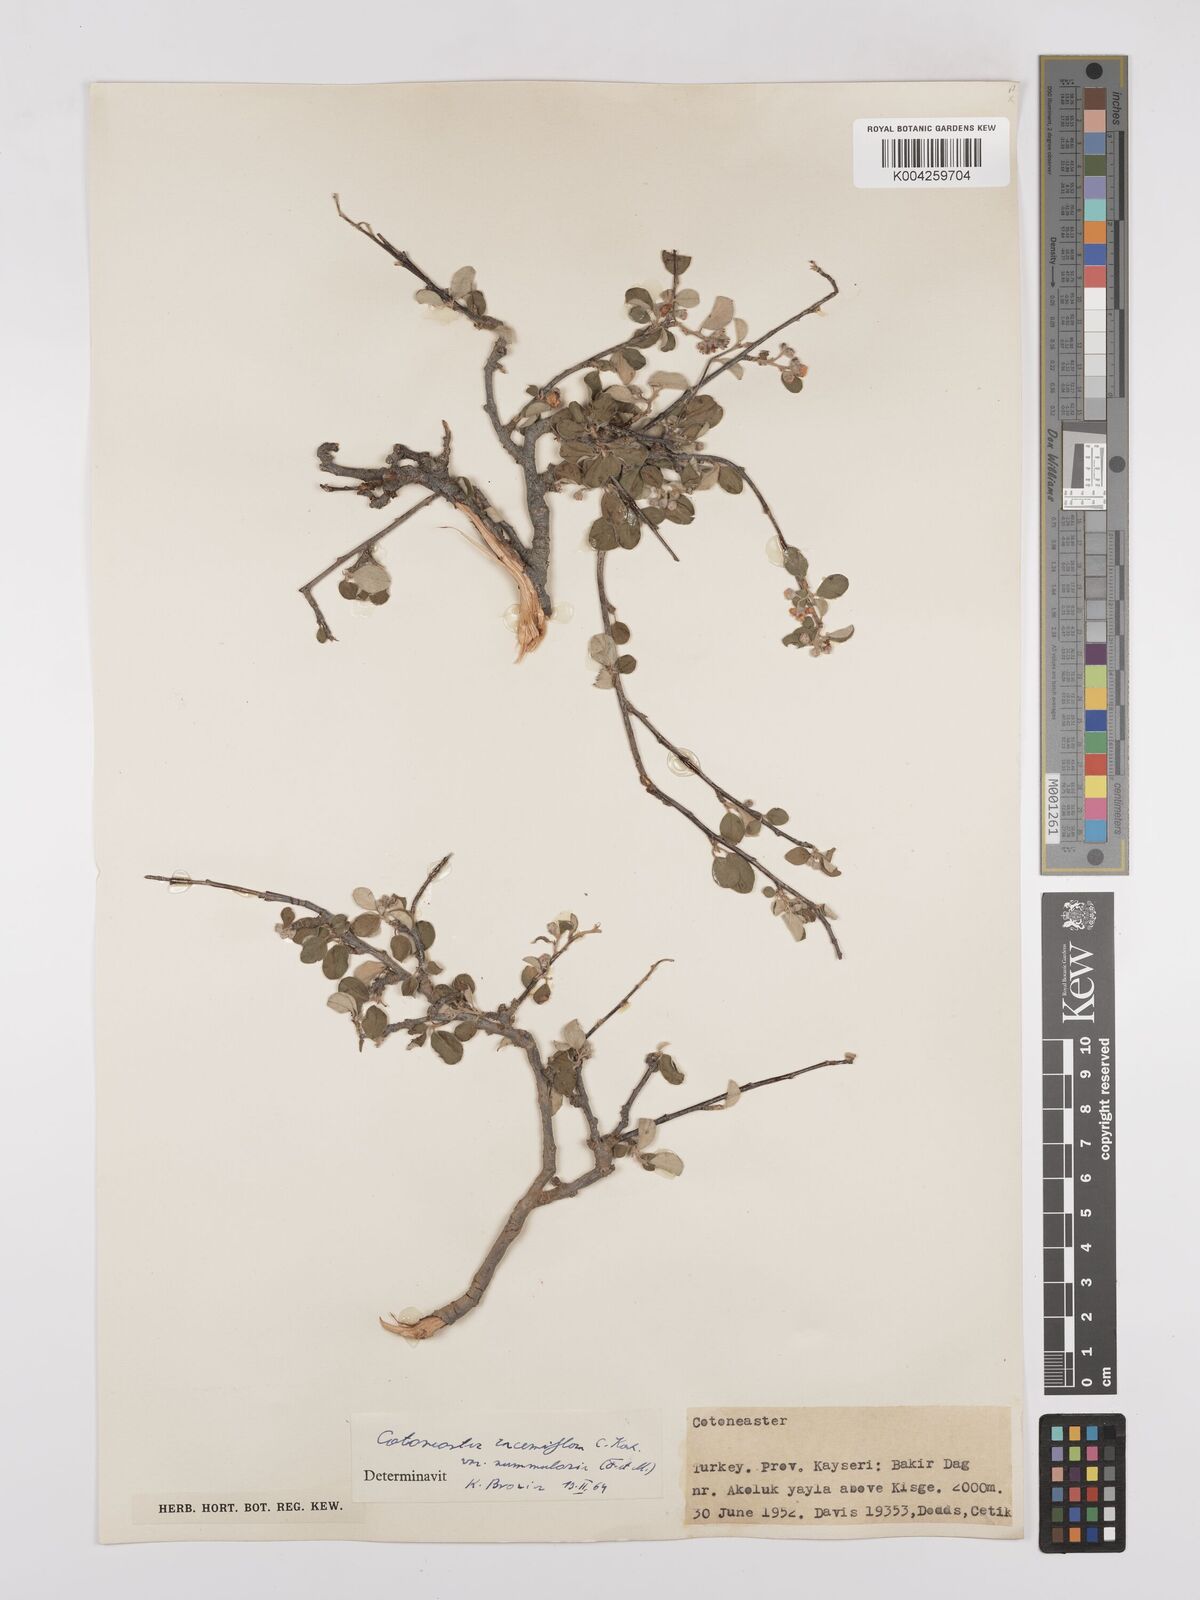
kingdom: Plantae
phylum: Tracheophyta
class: Magnoliopsida
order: Rosales
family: Rosaceae
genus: Cotoneaster
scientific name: Cotoneaster racemiflorus
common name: Cluster-flower cotoneaster
